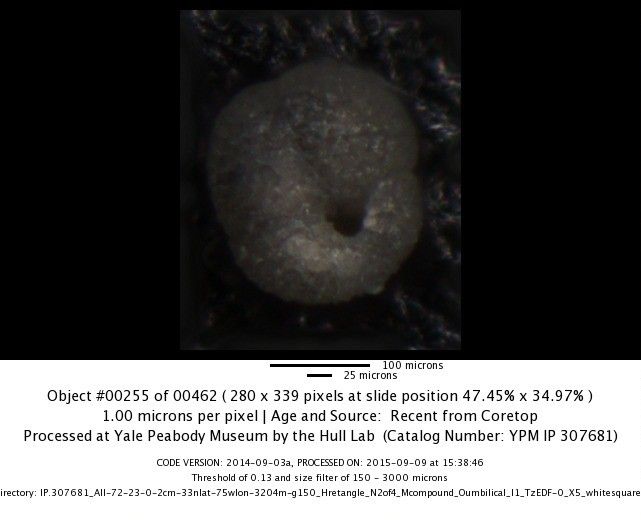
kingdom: Chromista
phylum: Foraminifera
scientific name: Foraminifera
